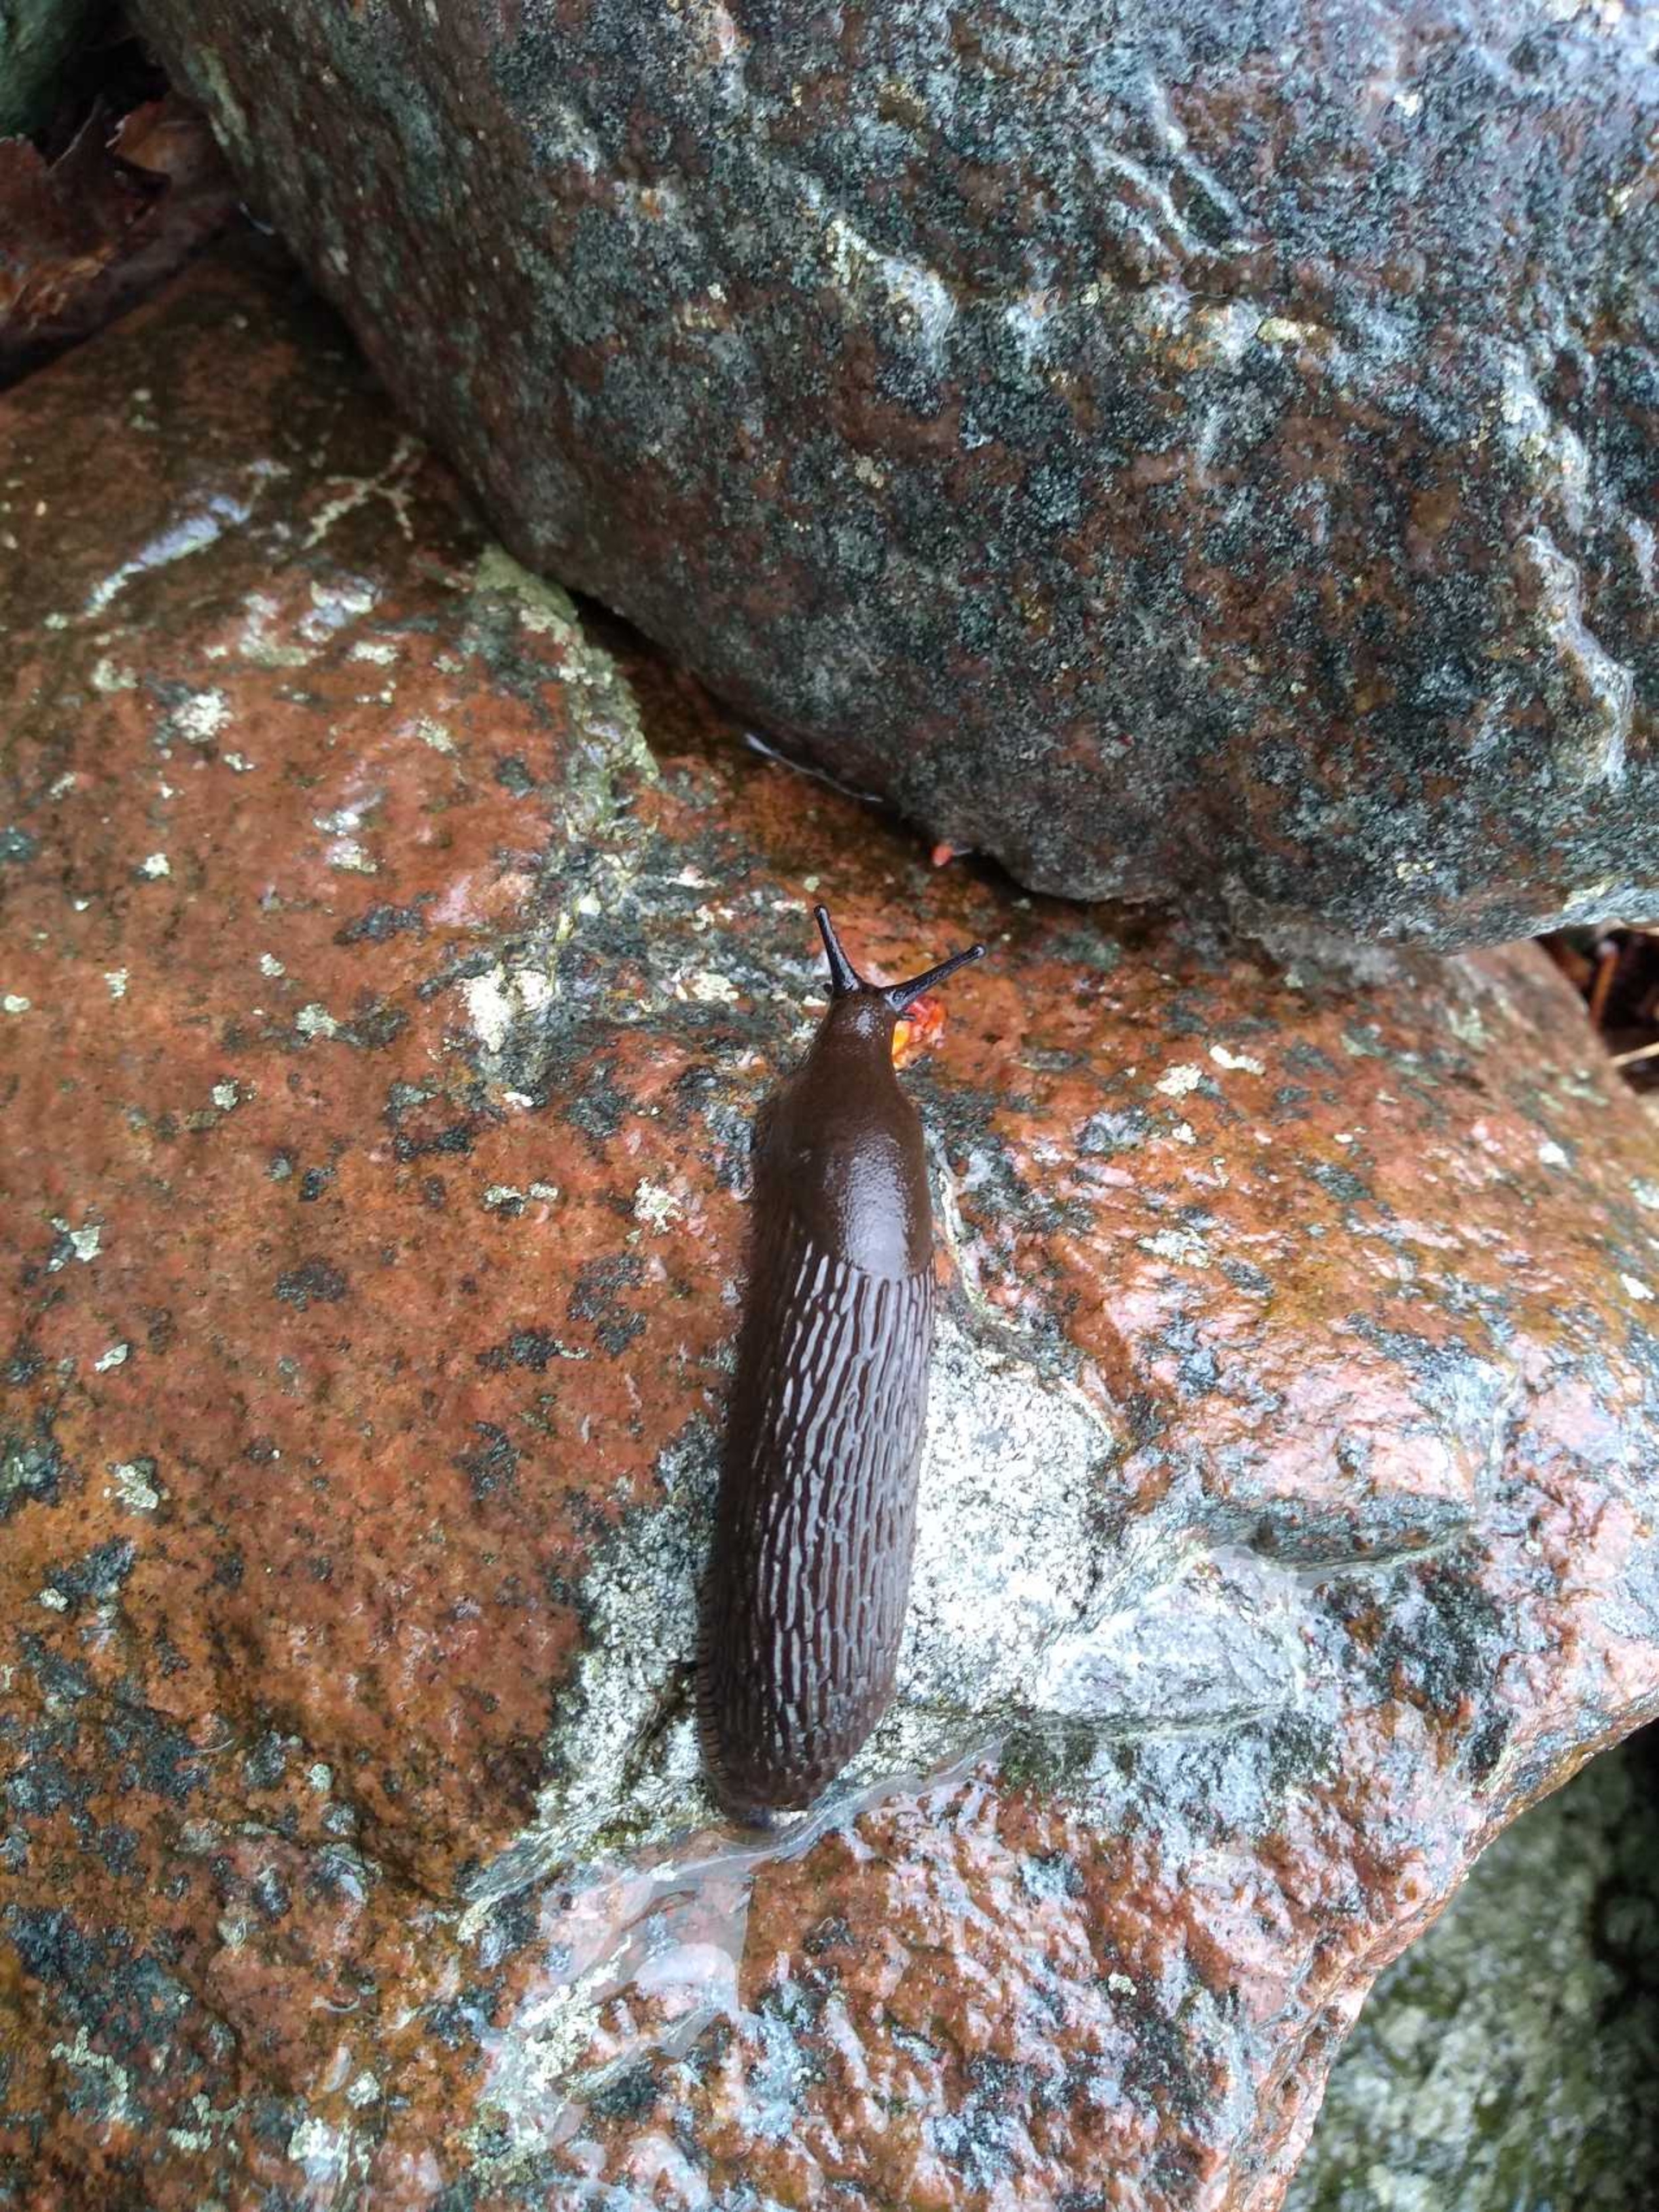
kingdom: Animalia
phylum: Mollusca
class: Gastropoda
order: Stylommatophora
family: Arionidae
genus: Arion
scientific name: Arion vulgaris
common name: Iberisk skovsnegl
